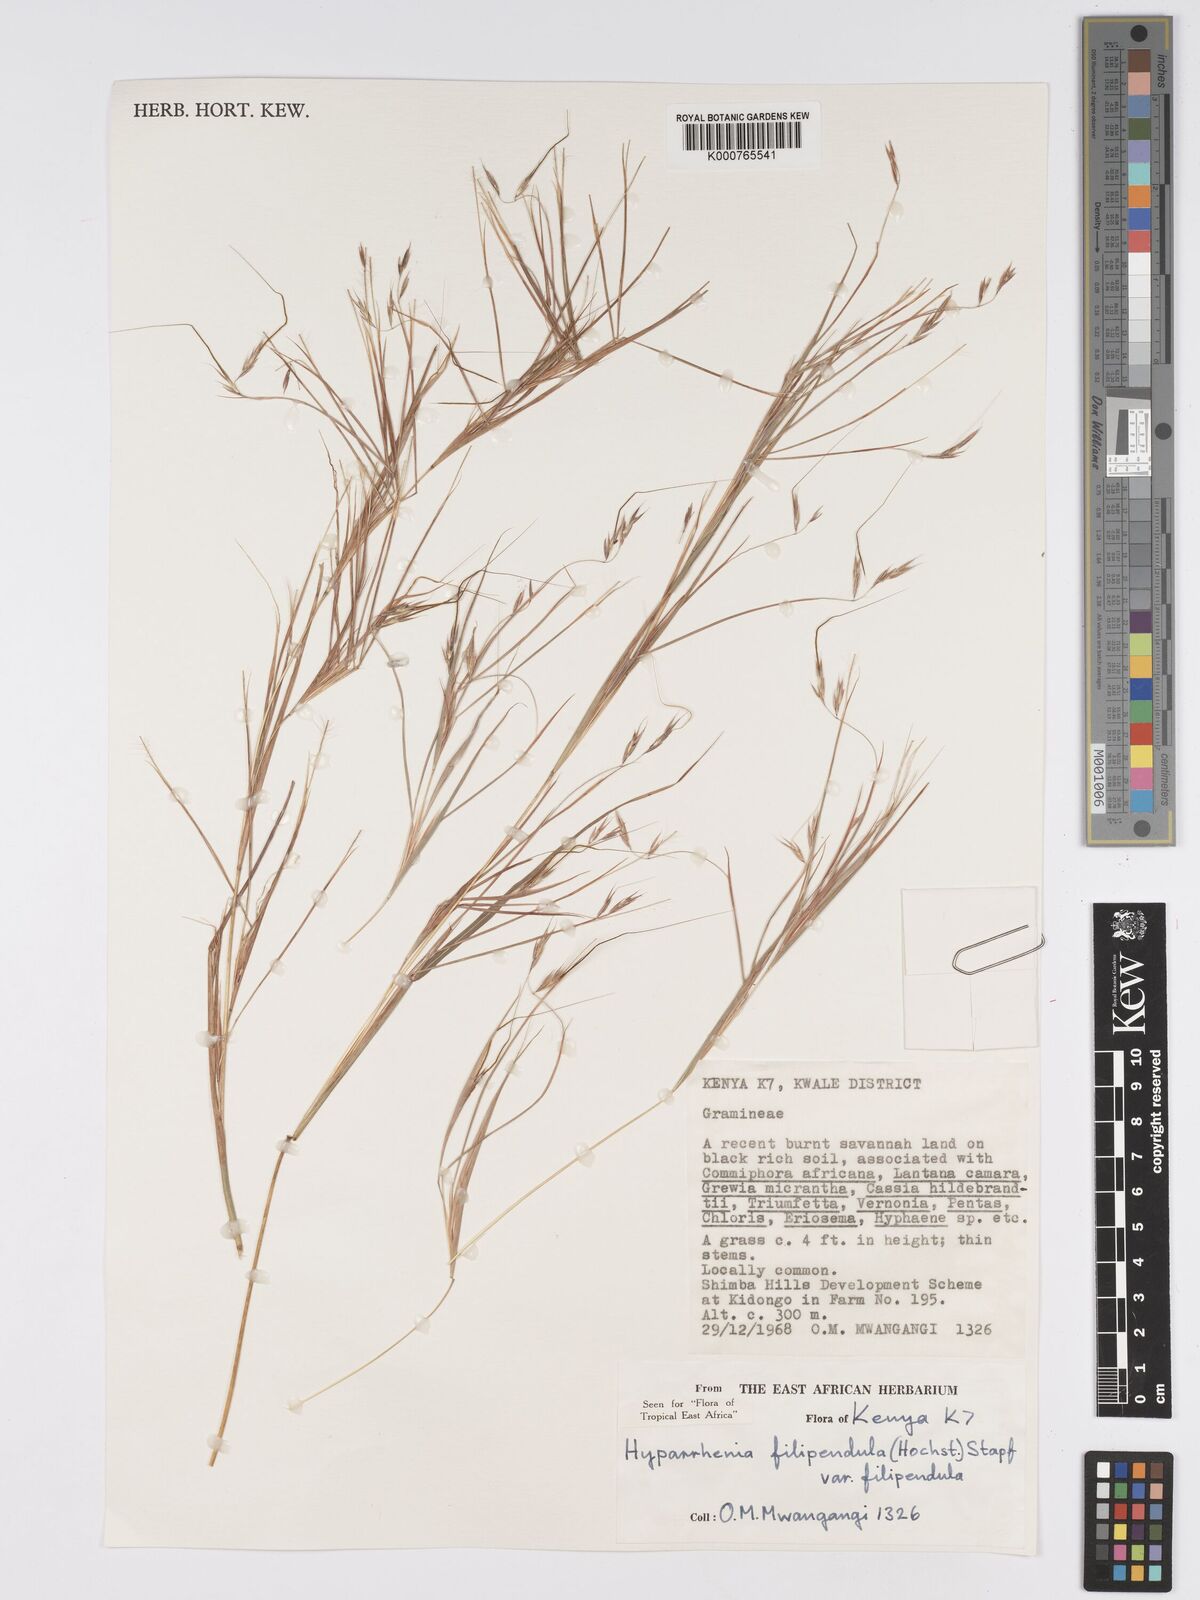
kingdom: Plantae
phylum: Tracheophyta
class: Liliopsida
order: Poales
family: Poaceae
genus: Hyparrhenia
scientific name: Hyparrhenia filipendula
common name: Tambookie grass
